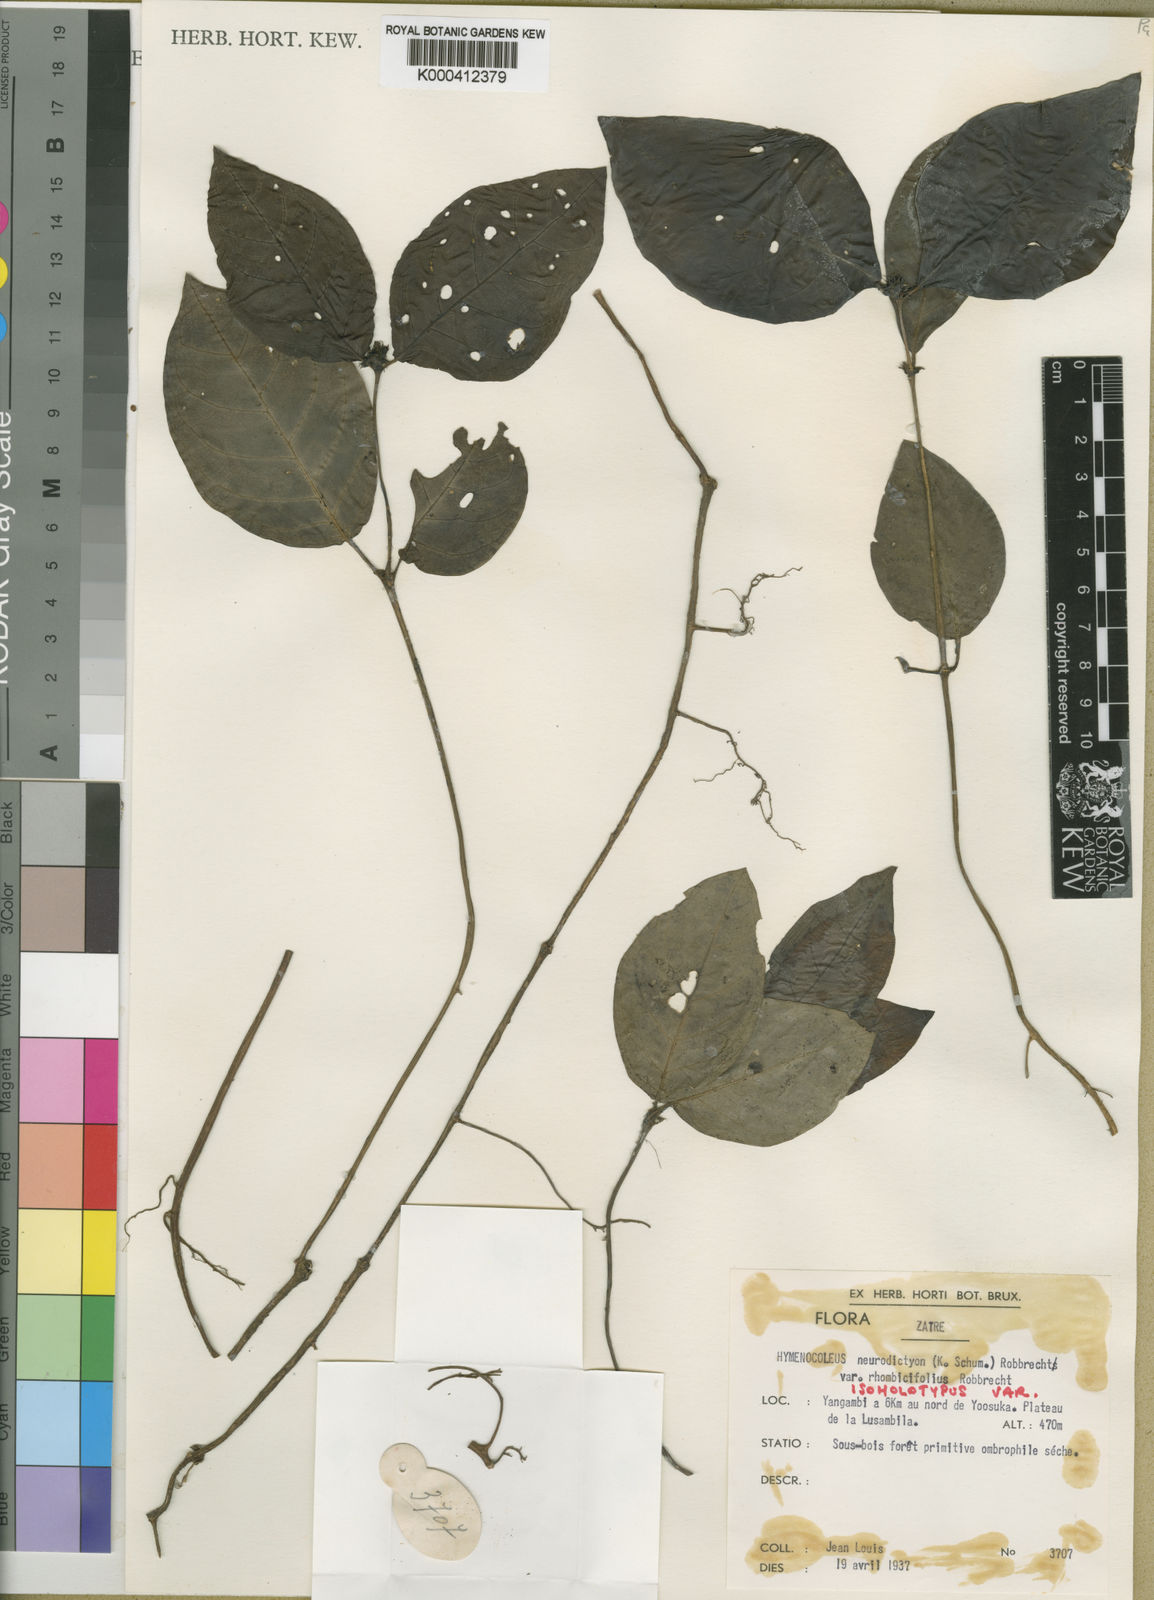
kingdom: Plantae
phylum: Tracheophyta
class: Magnoliopsida
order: Gentianales
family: Rubiaceae
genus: Hymenocoleus
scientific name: Hymenocoleus neurodictyon
